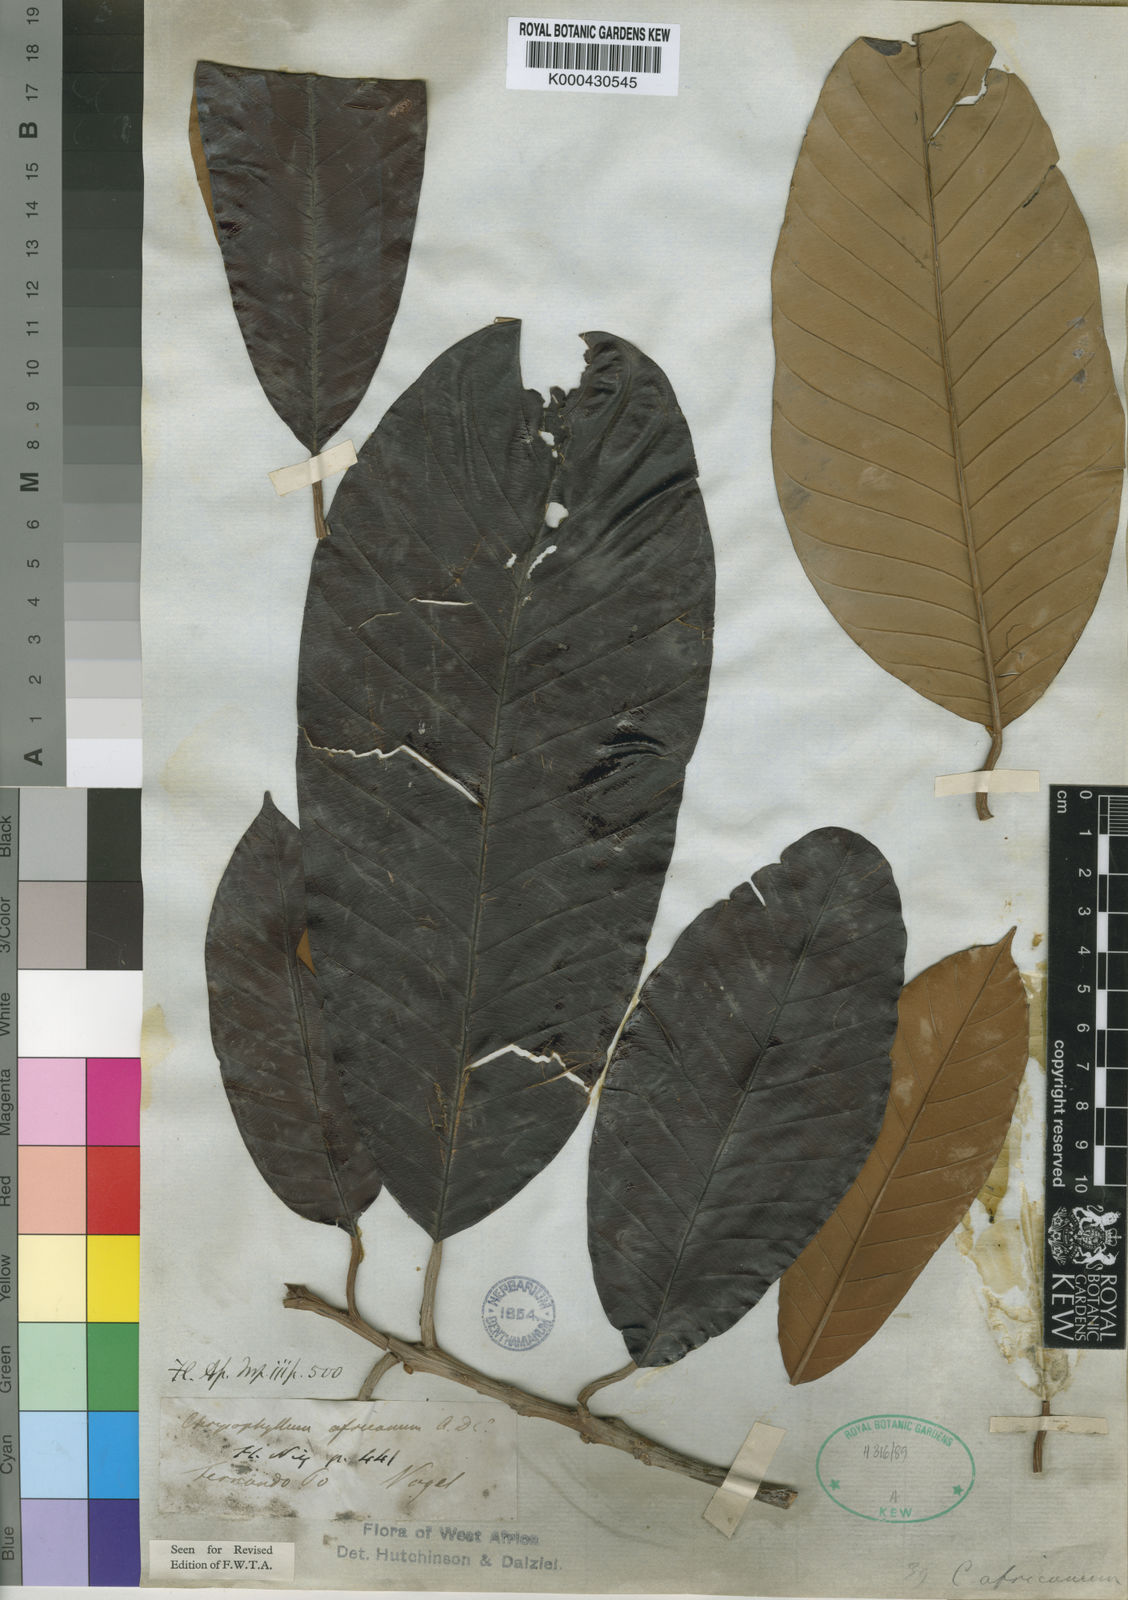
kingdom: Plantae
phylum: Tracheophyta
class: Magnoliopsida
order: Ericales
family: Sapotaceae
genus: Gambeya
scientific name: Gambeya africana
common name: African star apple
